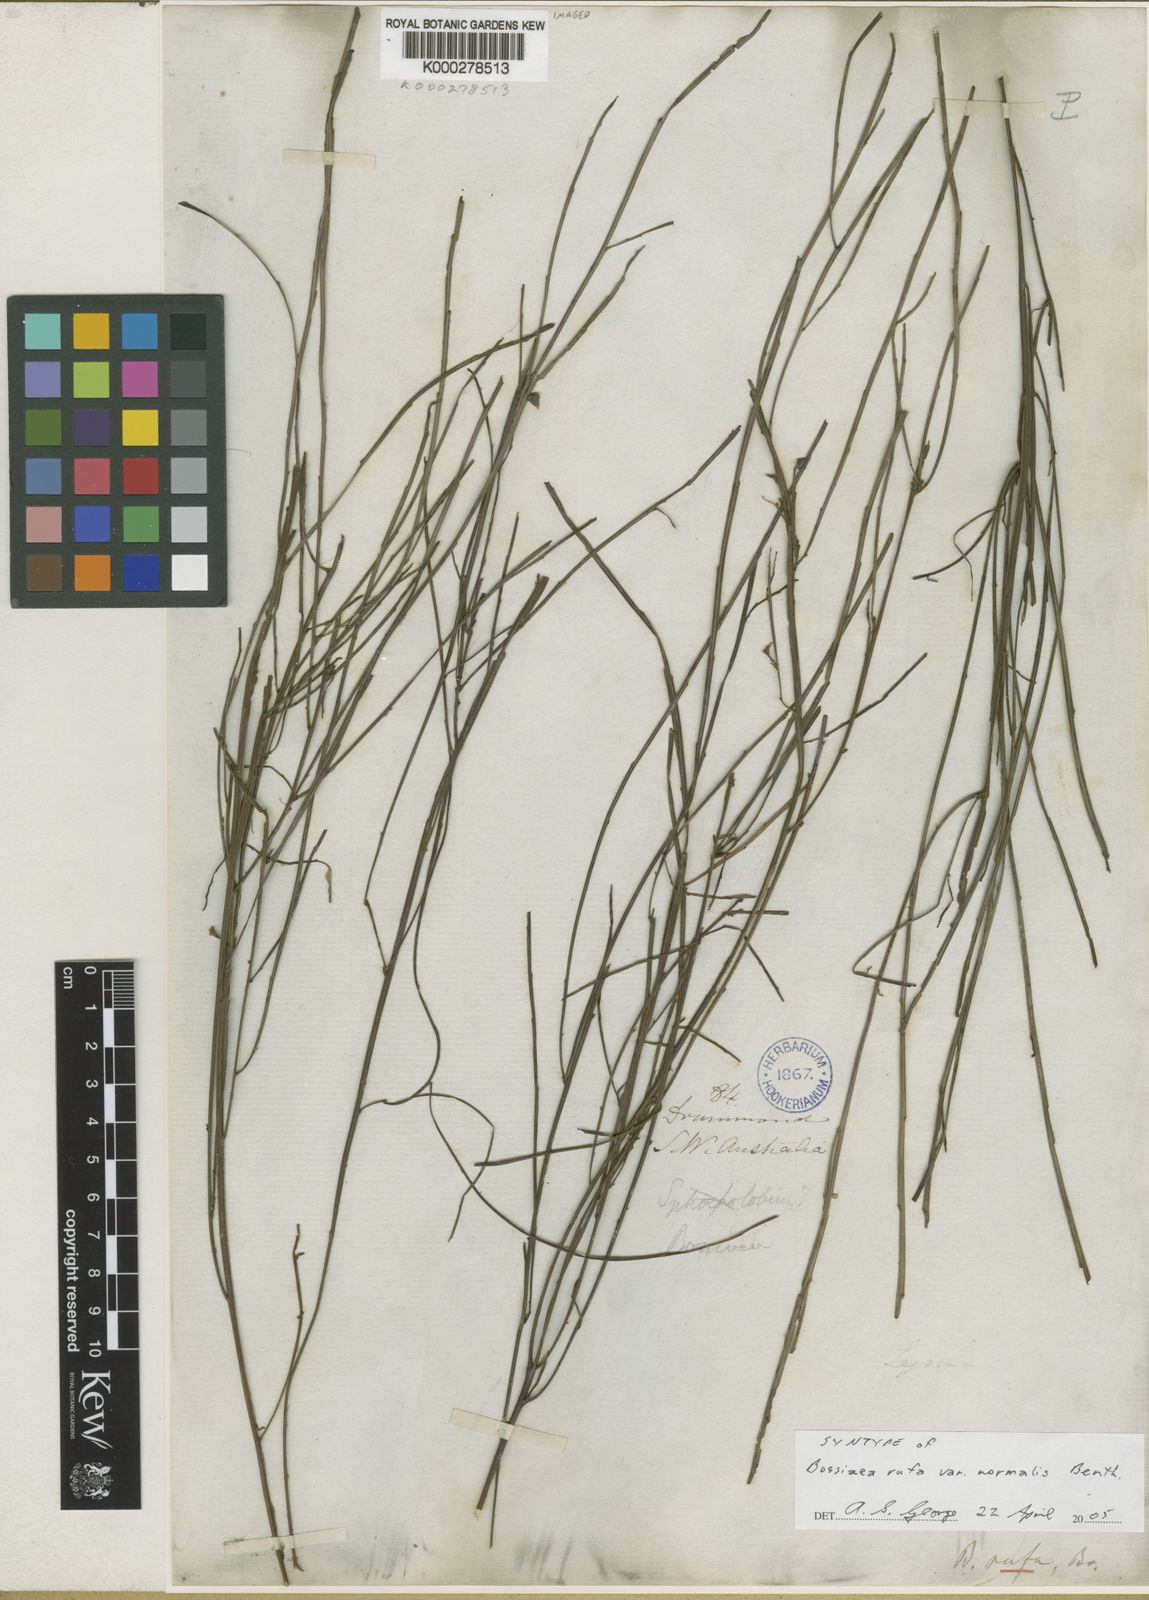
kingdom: Plantae
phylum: Tracheophyta
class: Magnoliopsida
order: Fabales
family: Fabaceae
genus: Bossiaea
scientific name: Bossiaea rufa
